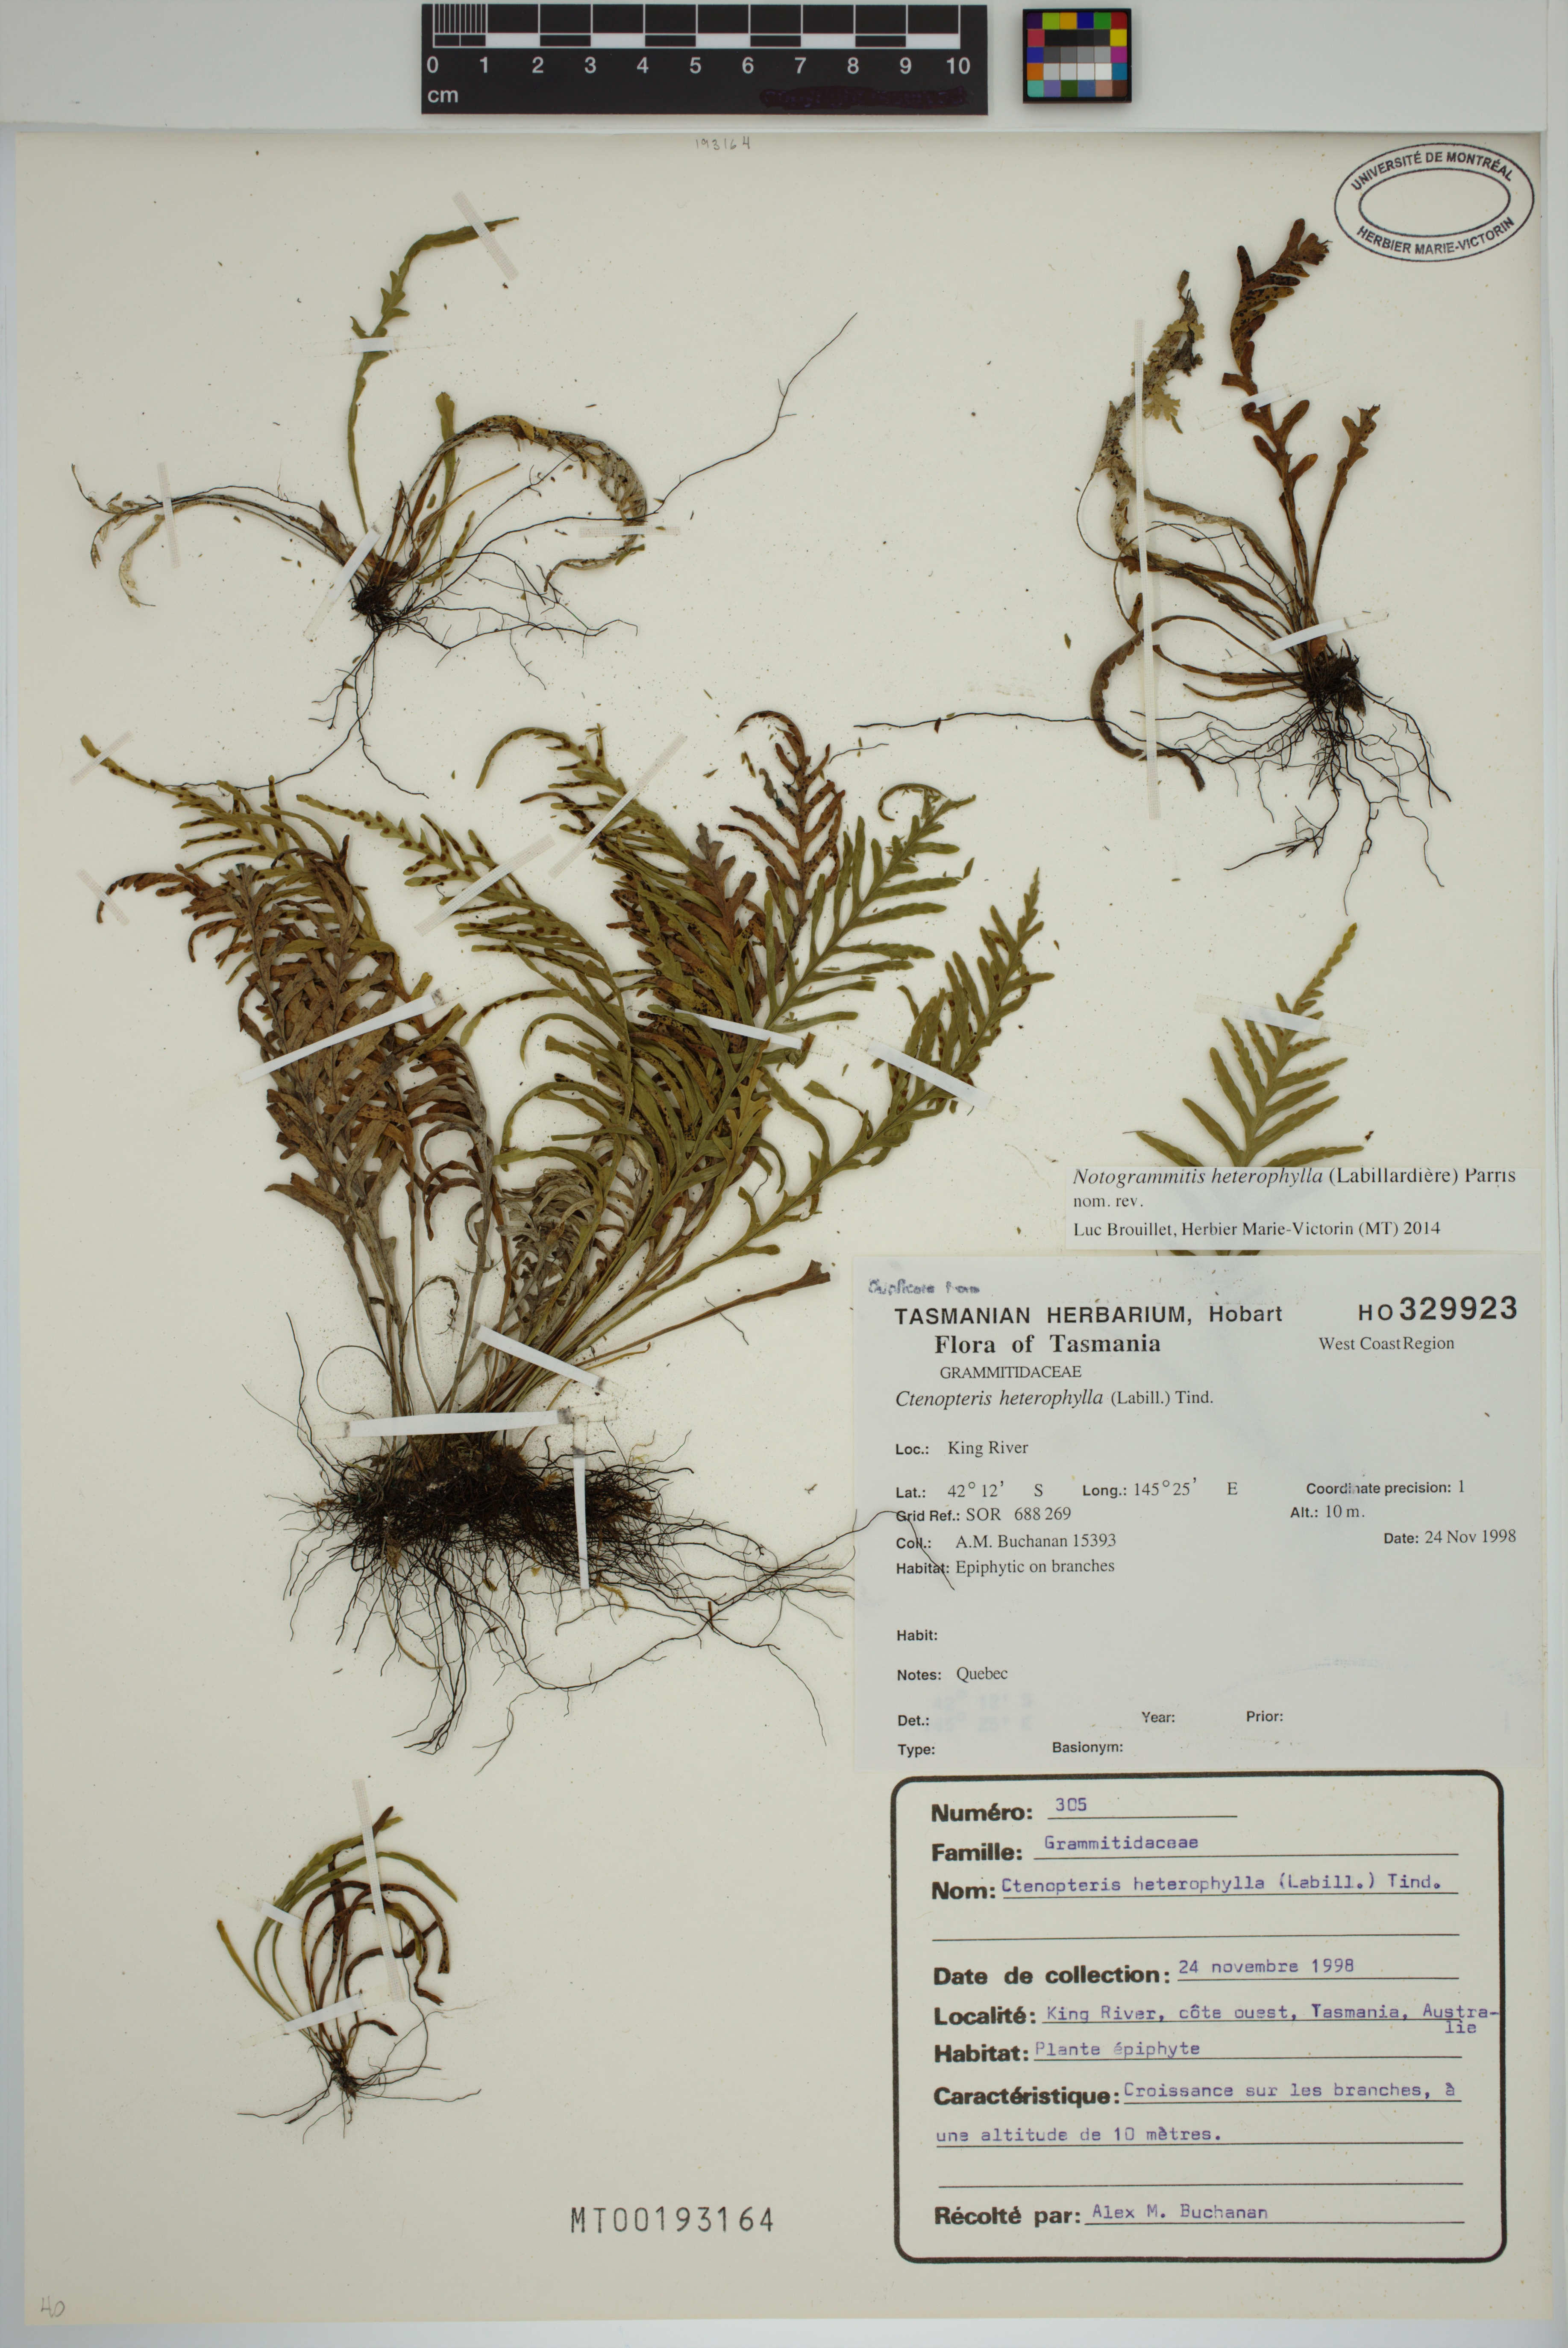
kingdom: Plantae
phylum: Tracheophyta
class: Polypodiopsida
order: Polypodiales
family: Polypodiaceae
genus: Notogrammitis
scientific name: Notogrammitis heterophylla
